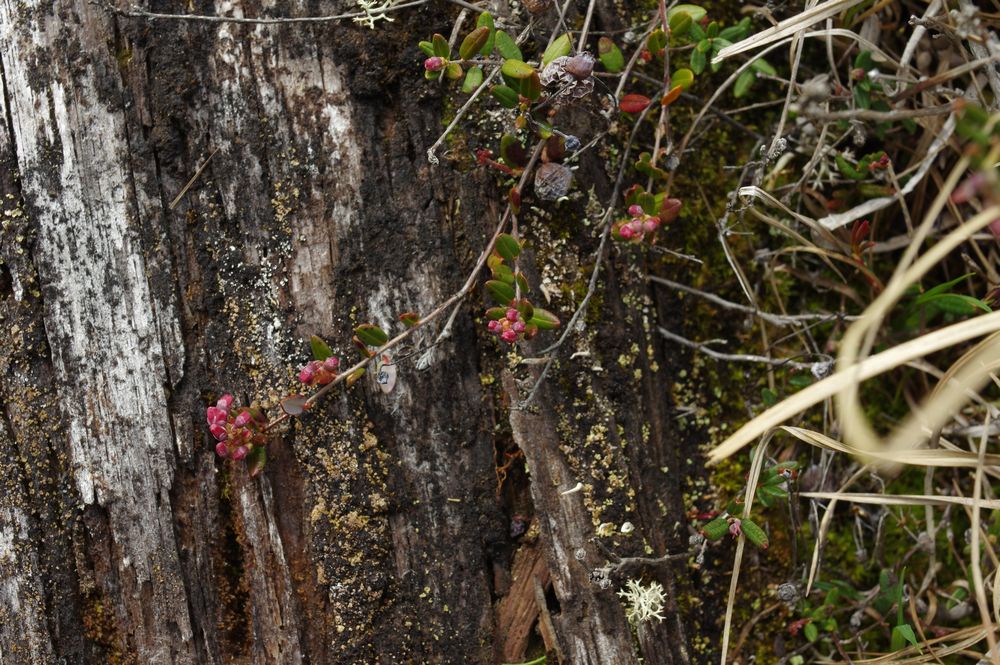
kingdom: Plantae
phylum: Tracheophyta
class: Magnoliopsida
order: Ericales
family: Ericaceae
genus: Oxycoccus
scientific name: Oxycoccus
